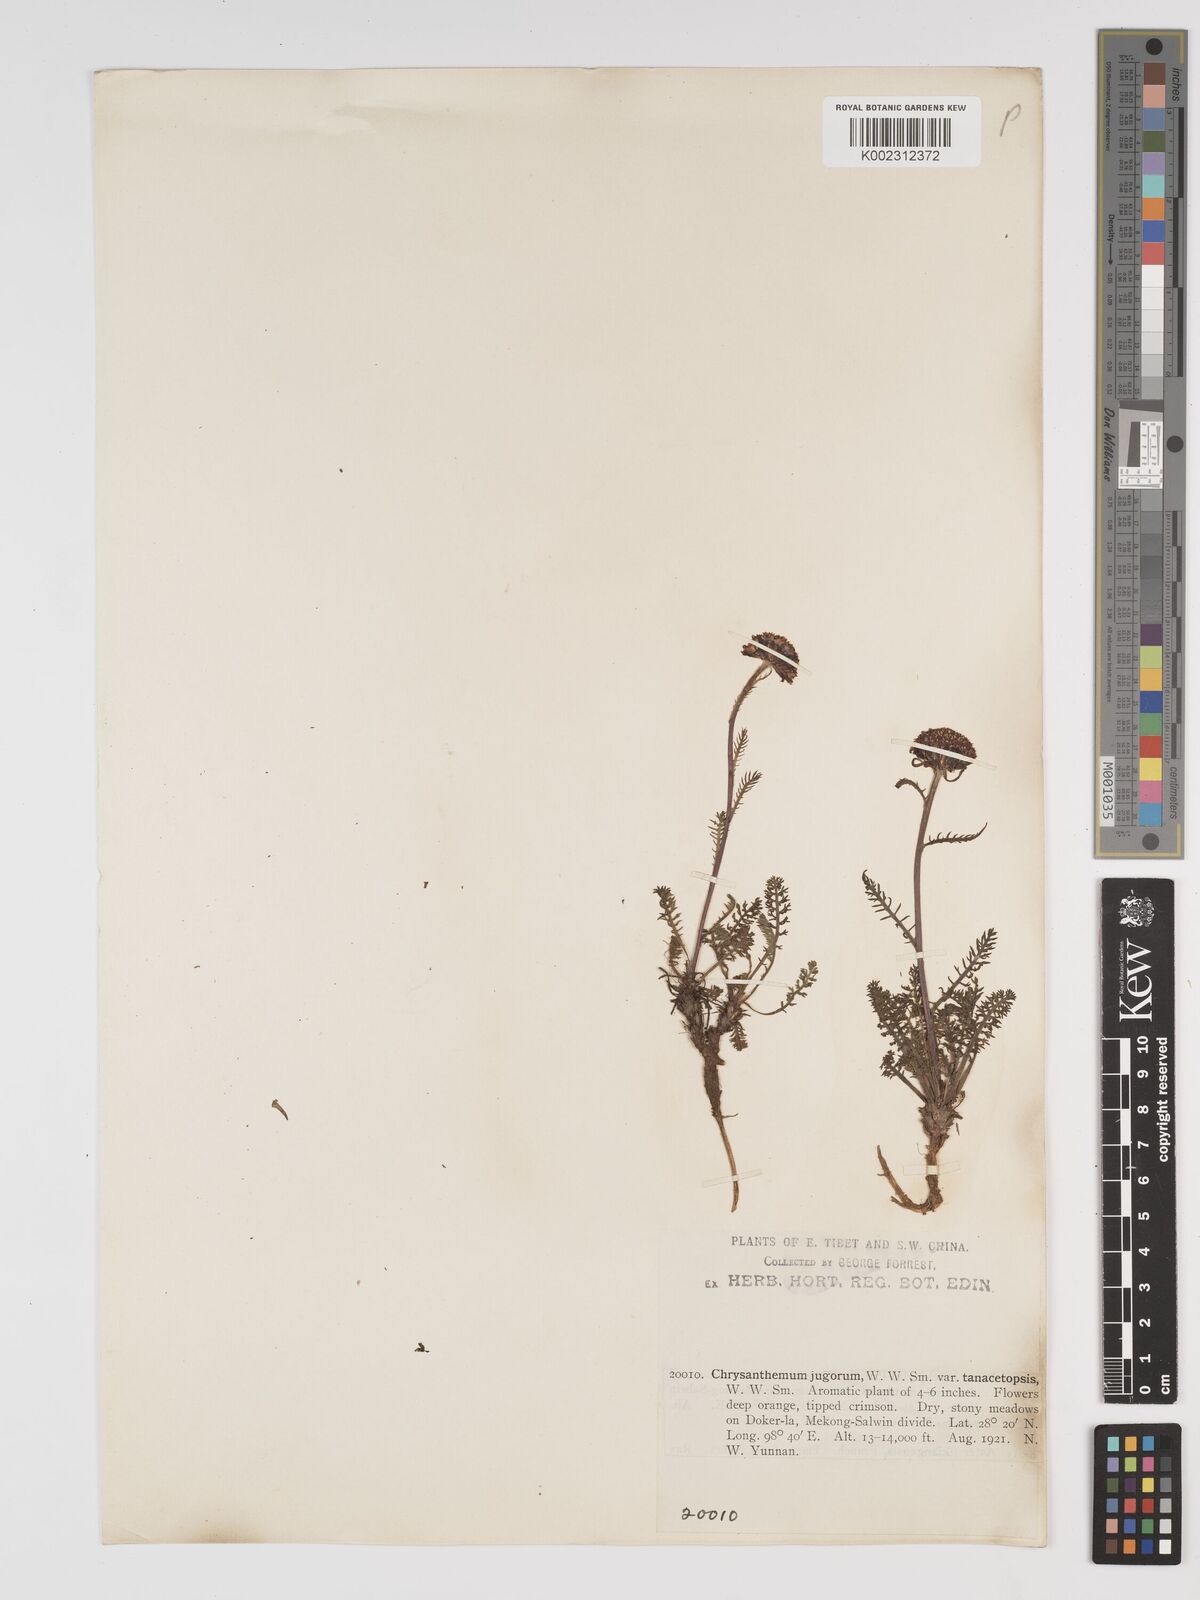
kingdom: Plantae
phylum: Tracheophyta
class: Magnoliopsida
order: Asterales
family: Asteraceae
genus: Tanacetum
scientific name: Tanacetum tatsienense
